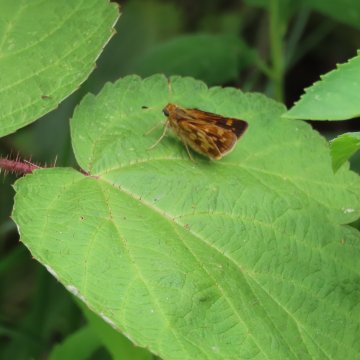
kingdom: Animalia
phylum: Arthropoda
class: Insecta
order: Lepidoptera
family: Hesperiidae
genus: Polites
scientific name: Polites coras
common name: Peck's Skipper
